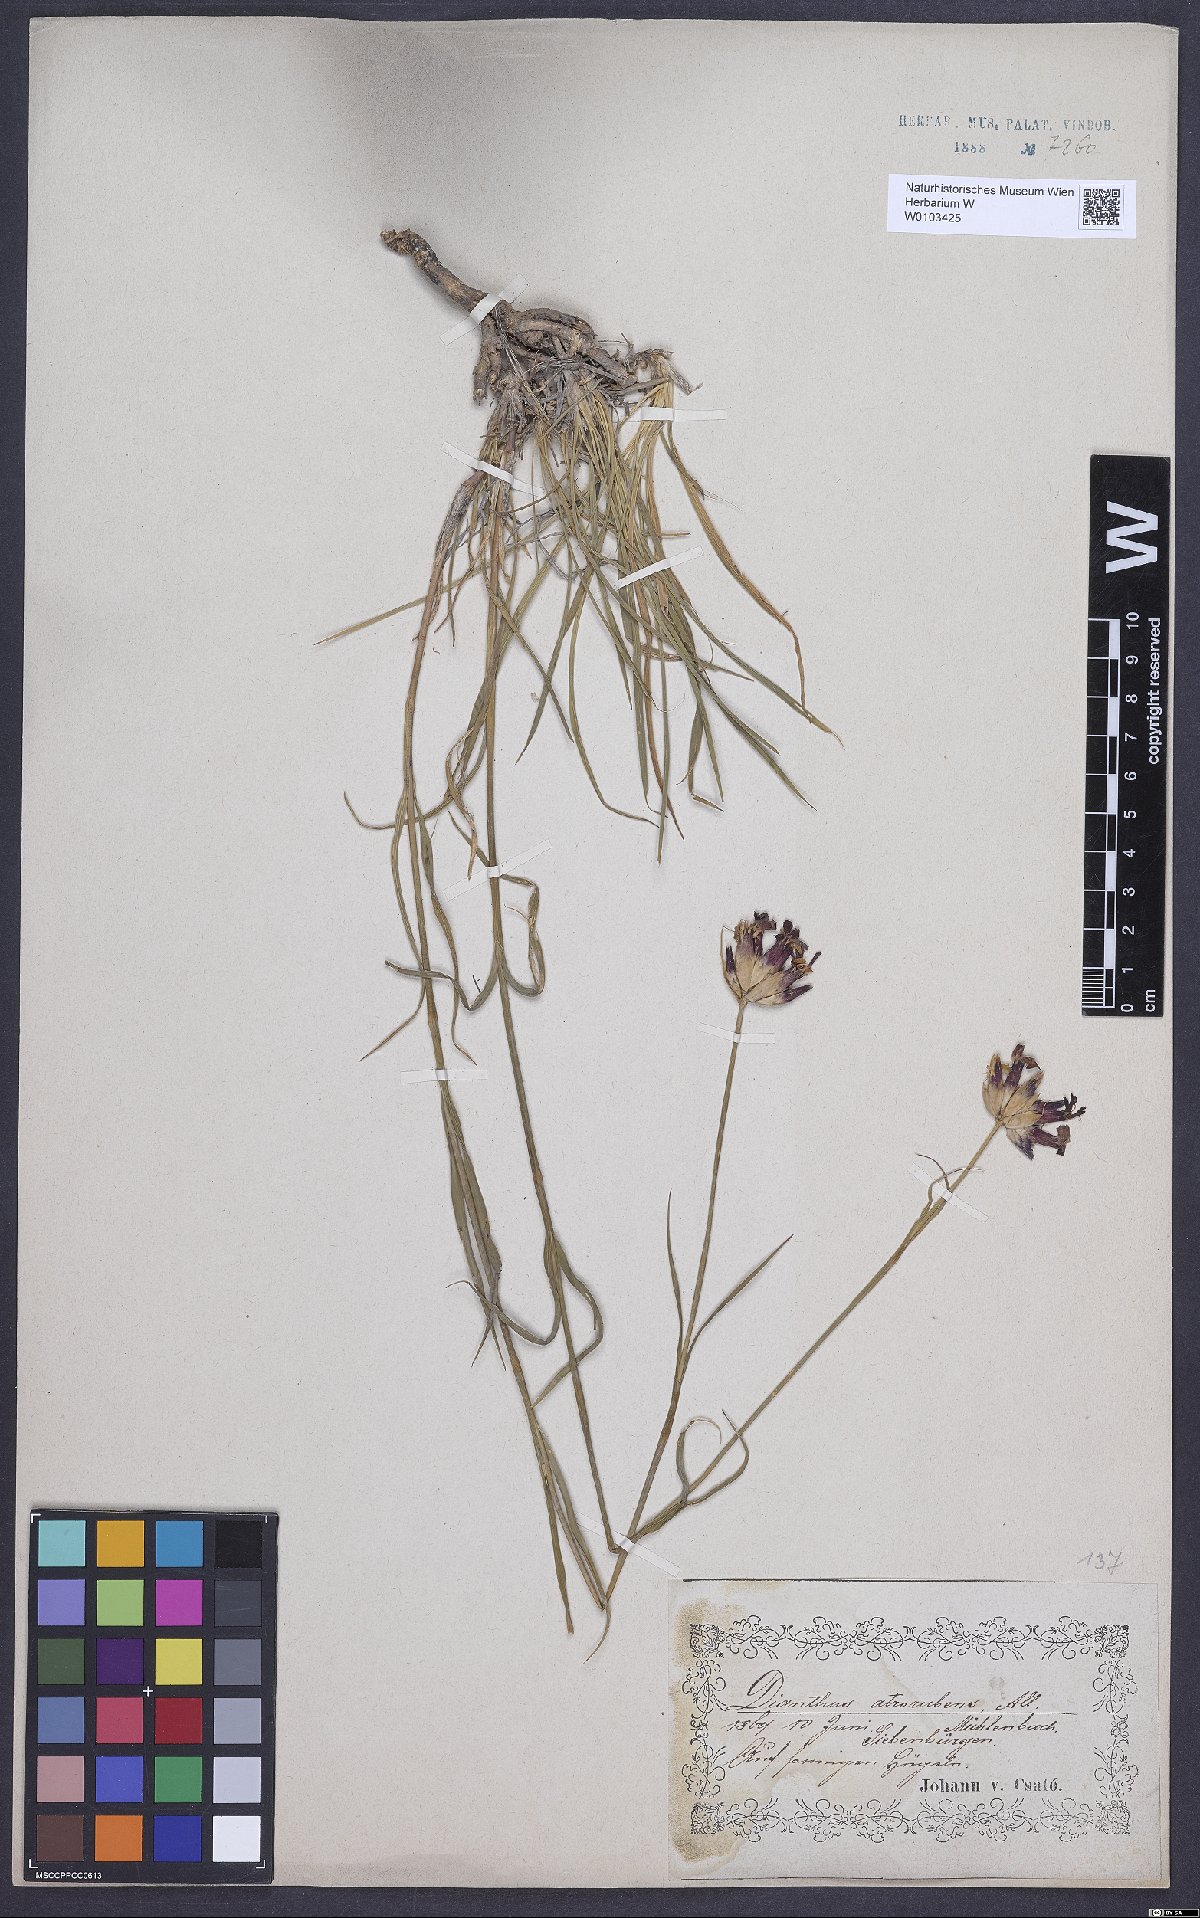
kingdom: Plantae
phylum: Tracheophyta
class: Magnoliopsida
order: Caryophyllales
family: Caryophyllaceae
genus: Dianthus
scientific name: Dianthus carthusianorum
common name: Carthusian pink
